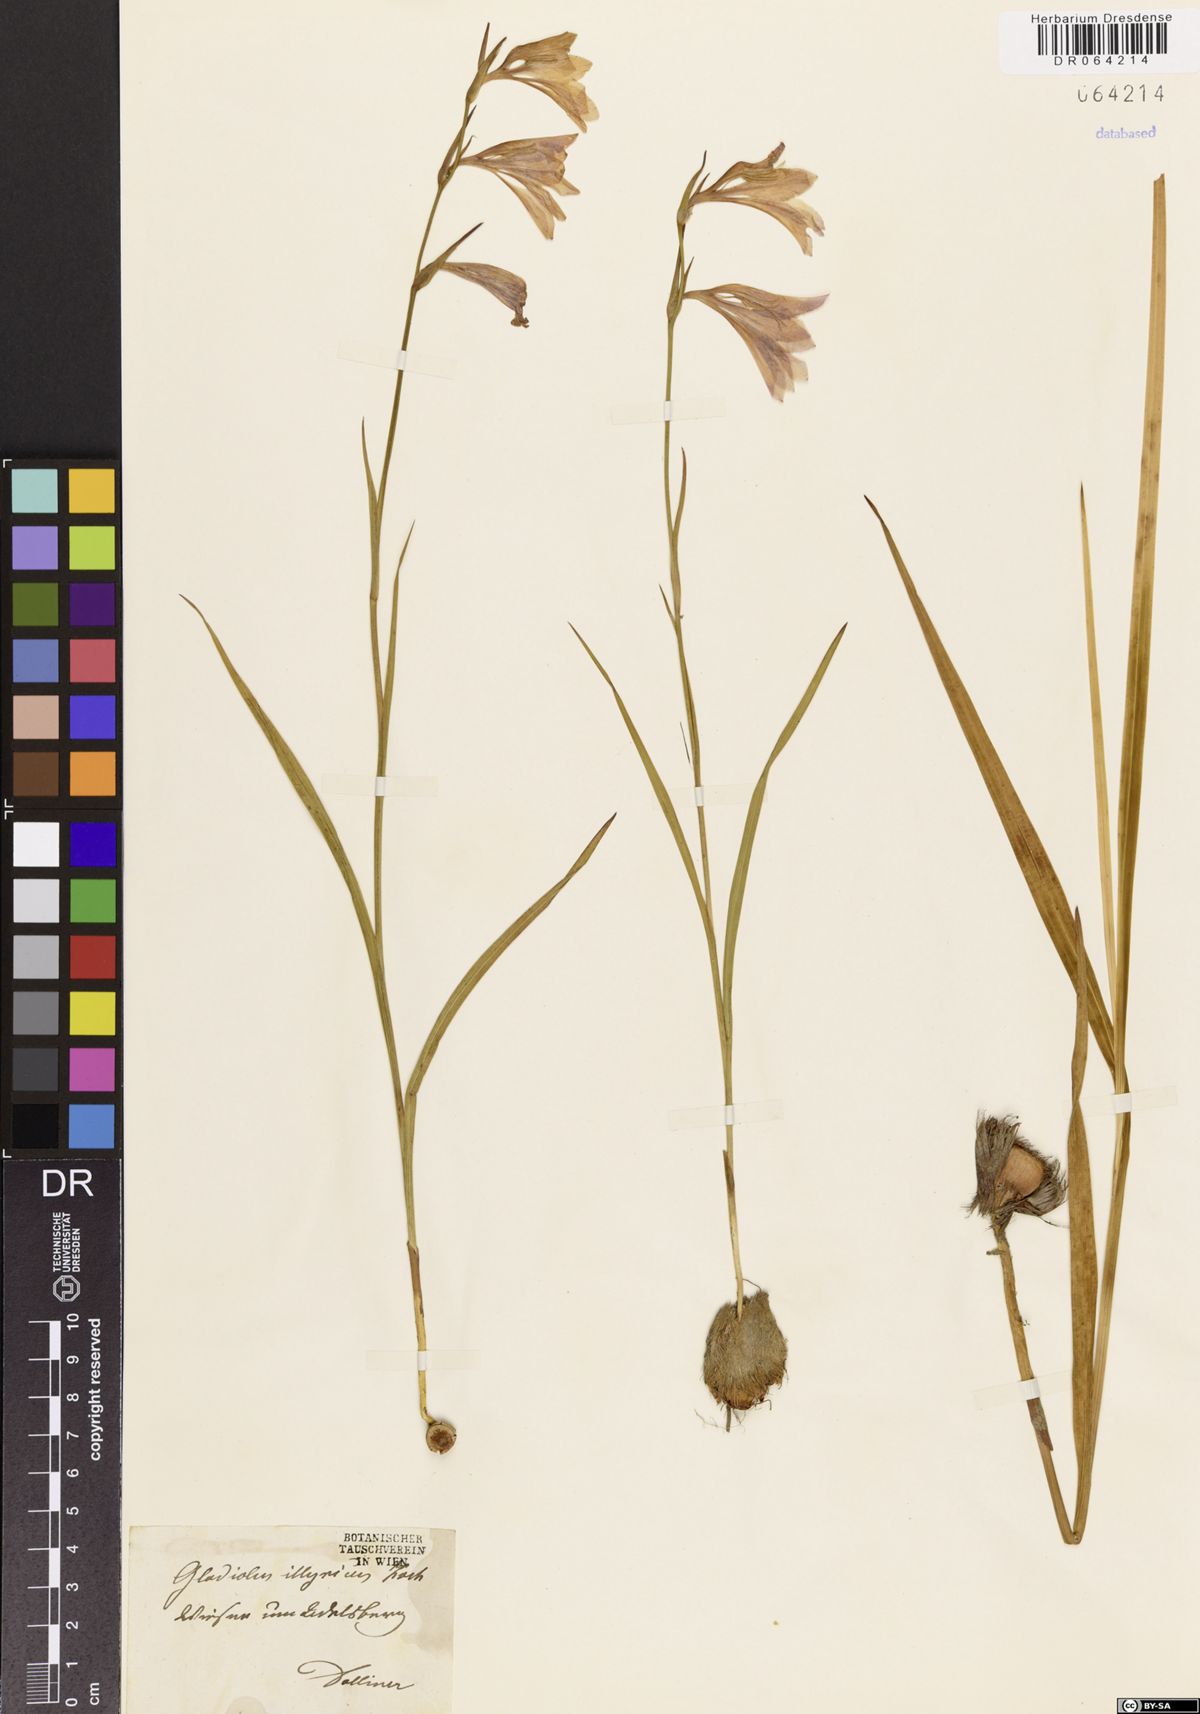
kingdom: Plantae
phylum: Tracheophyta
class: Liliopsida
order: Asparagales
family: Iridaceae
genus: Gladiolus
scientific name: Gladiolus illyricus
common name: Wild gladiolus
